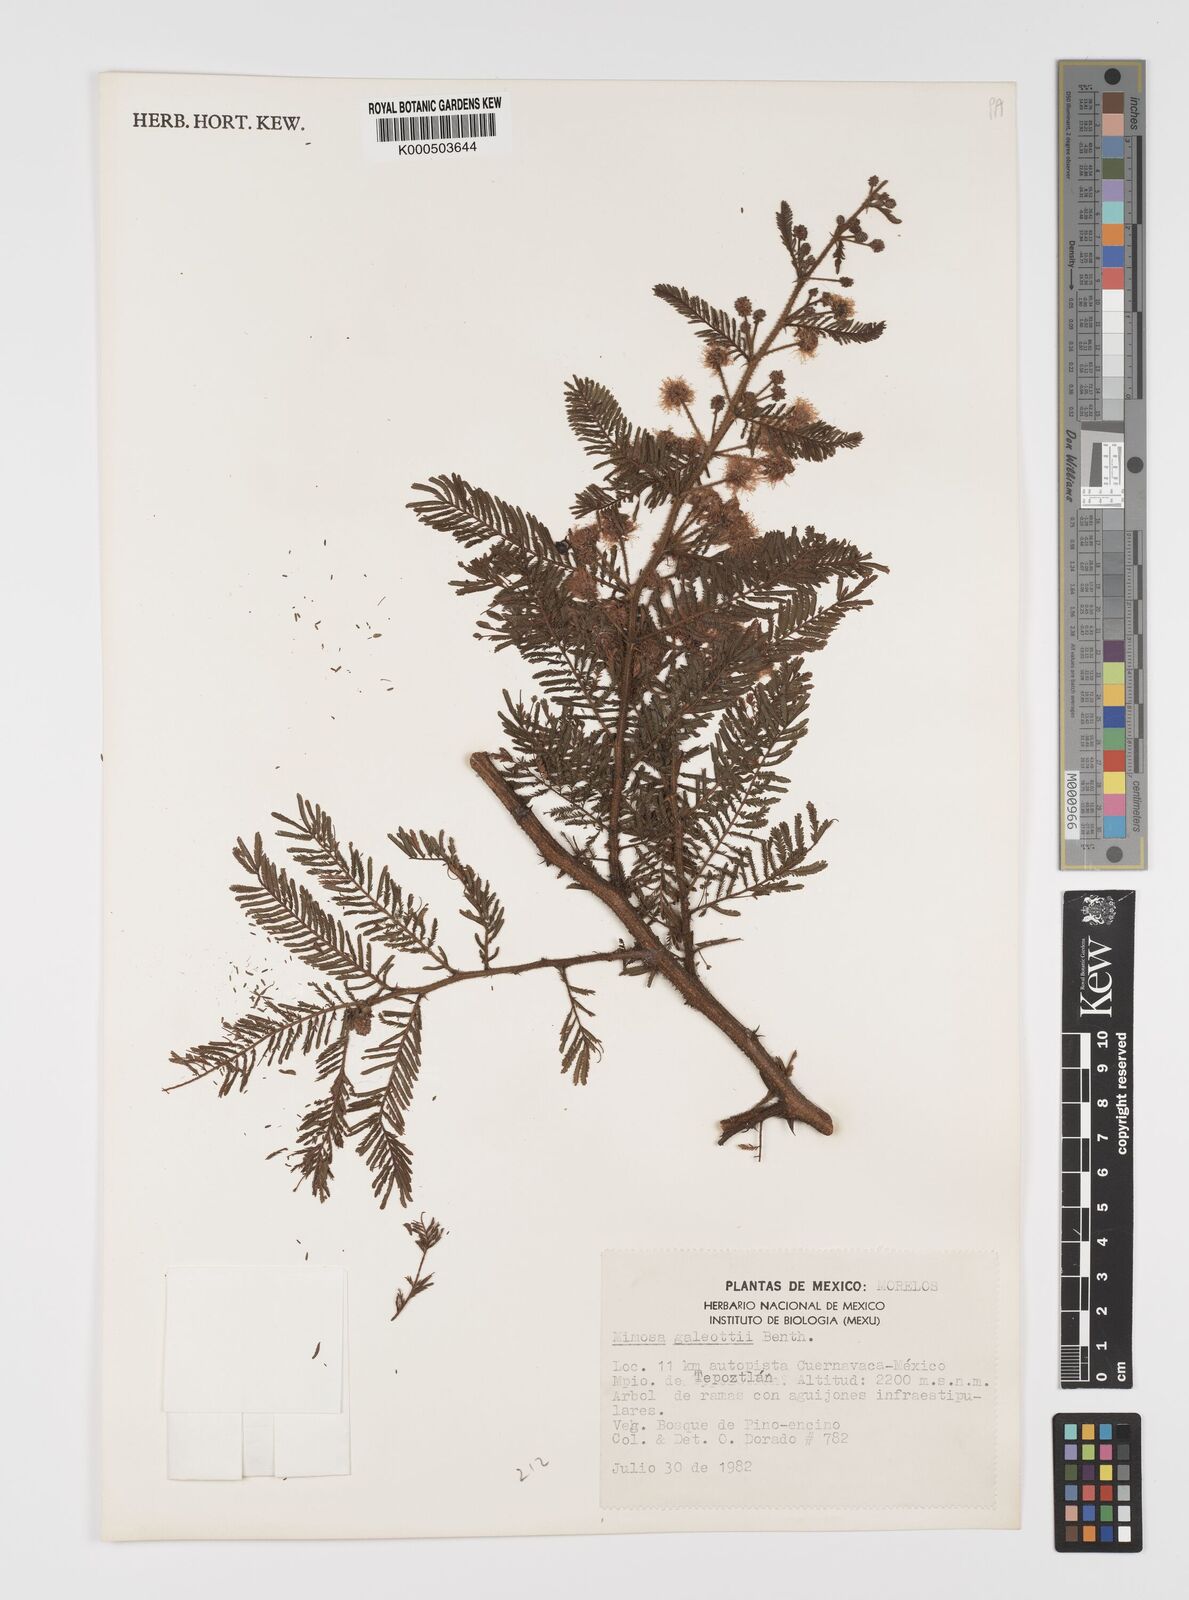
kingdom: Plantae
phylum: Tracheophyta
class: Magnoliopsida
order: Fabales
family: Fabaceae
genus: Mimosa
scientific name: Mimosa galeottii
